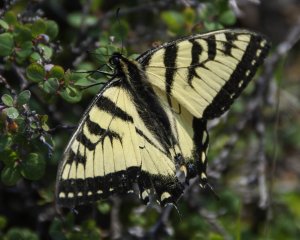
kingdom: Animalia
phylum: Arthropoda
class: Insecta
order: Lepidoptera
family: Papilionidae
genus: Pterourus
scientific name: Pterourus canadensis
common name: Canadian Tiger Swallowtail
